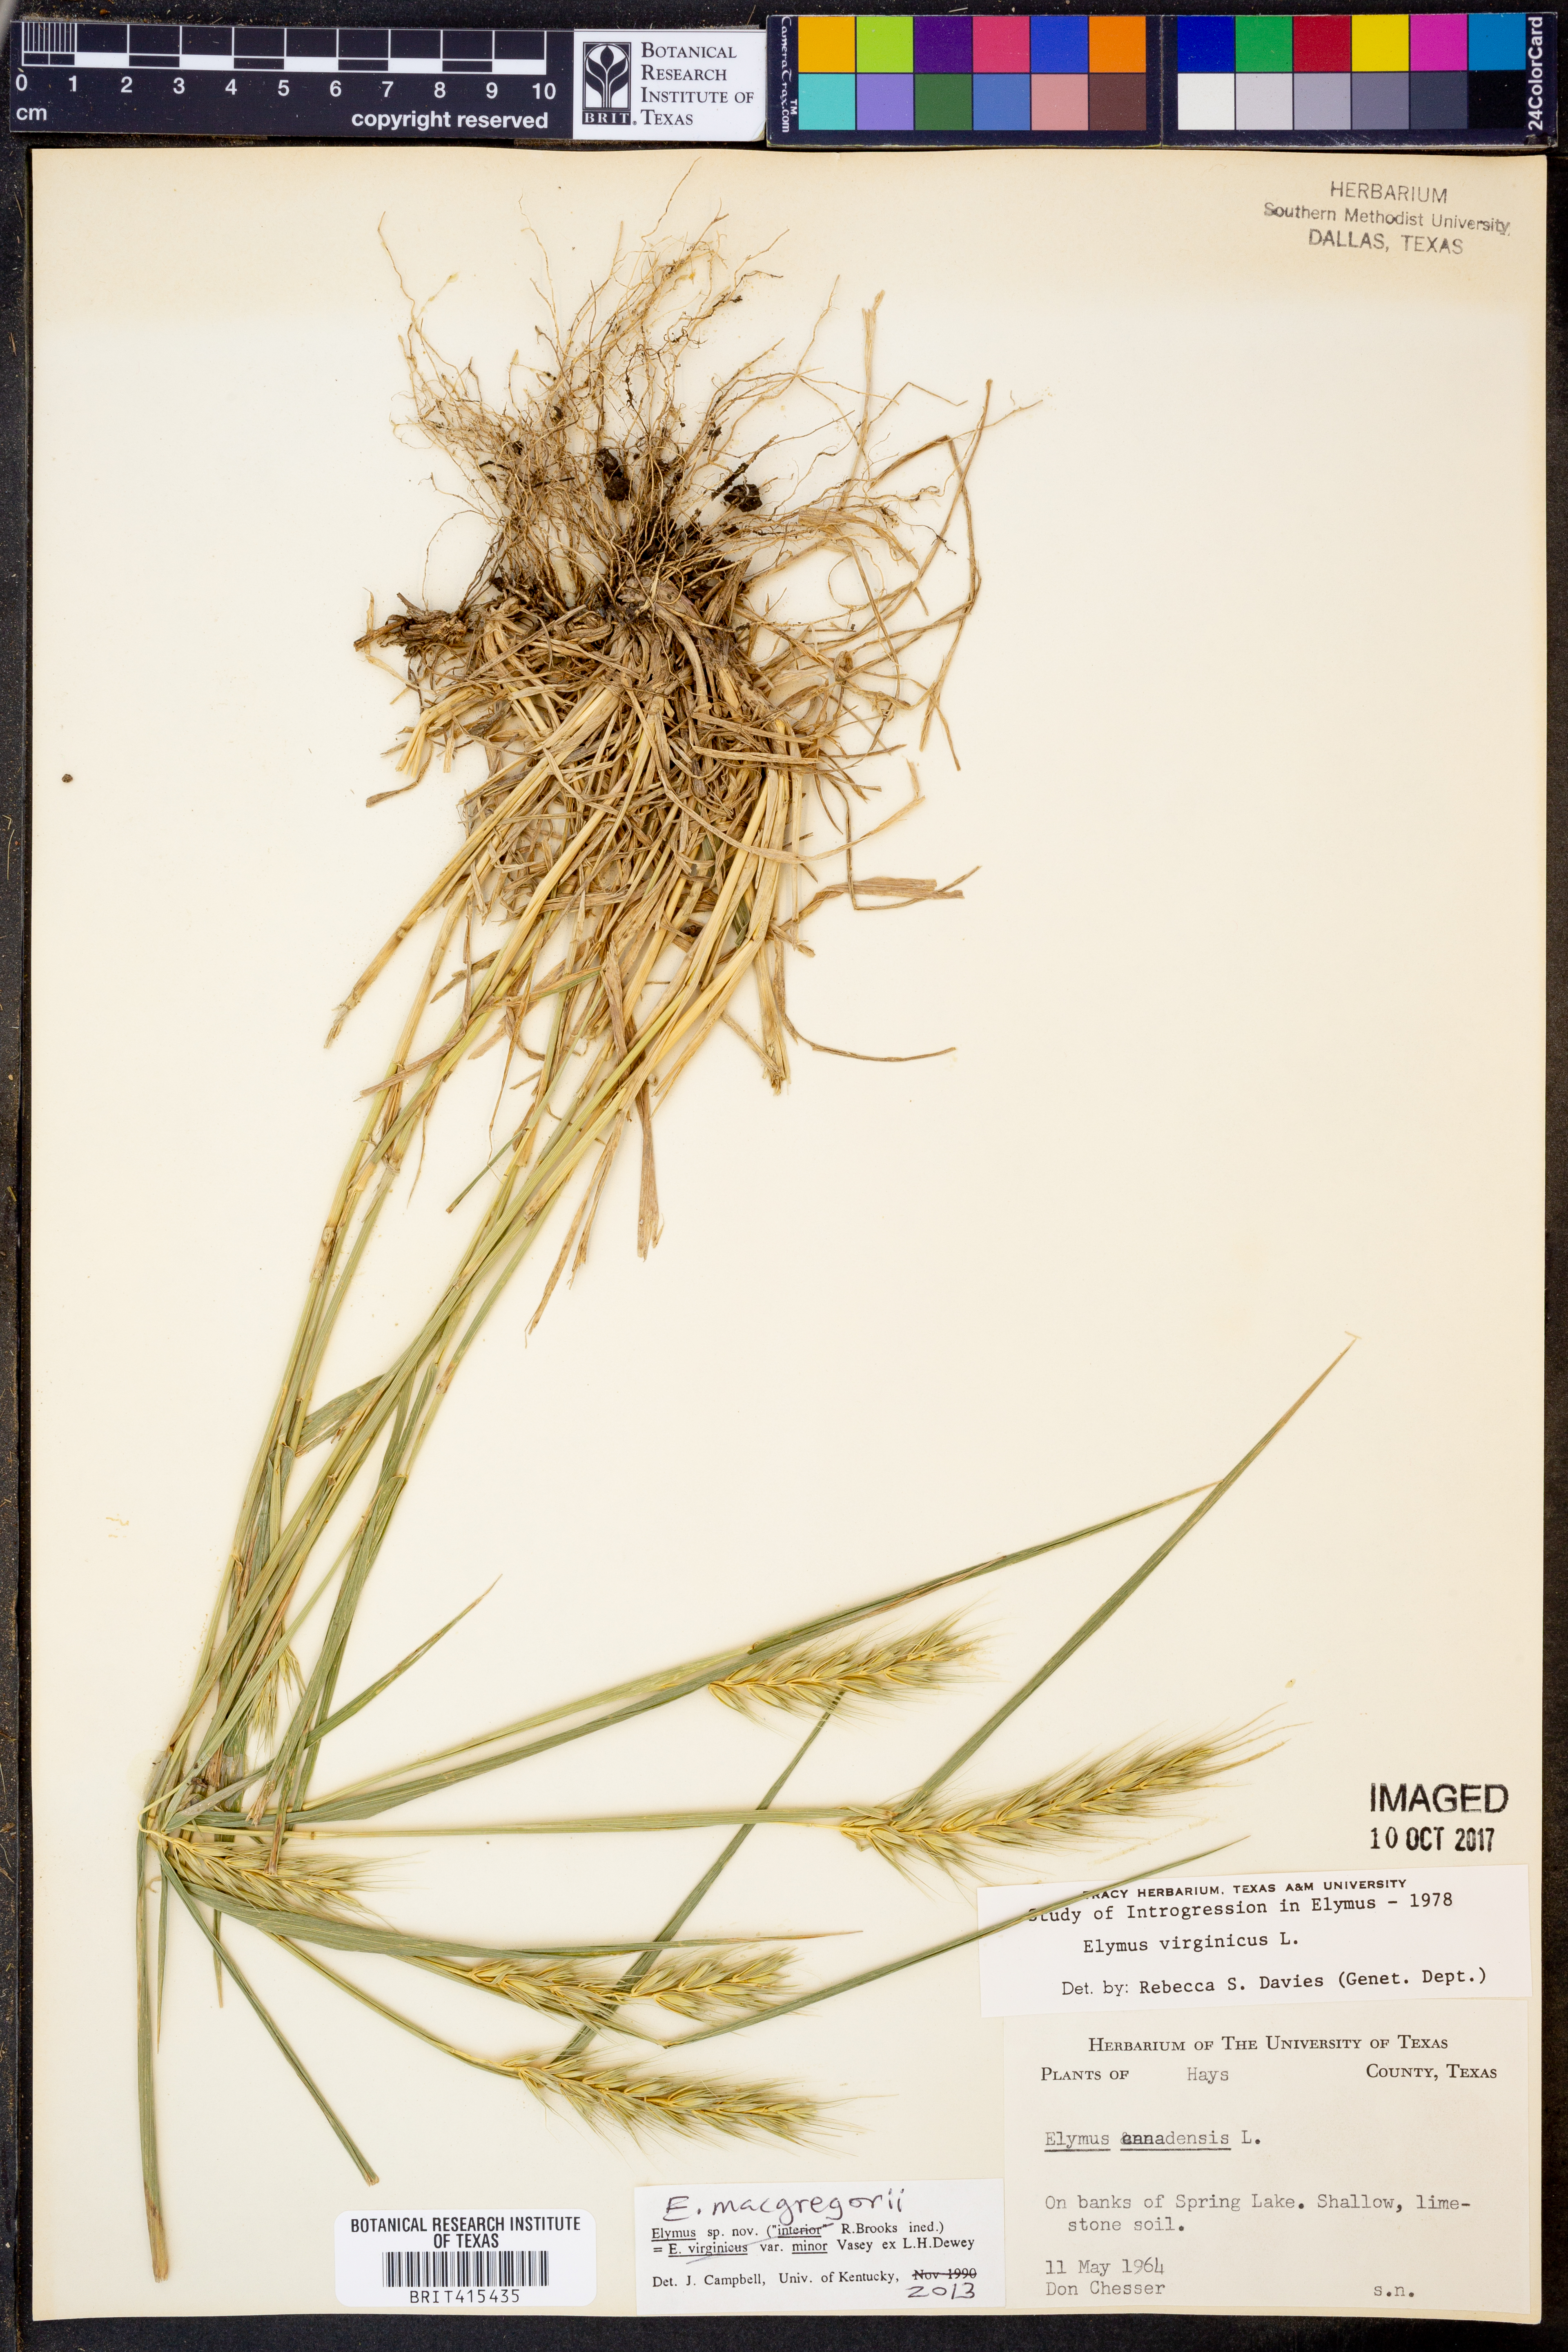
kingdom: Plantae
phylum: Tracheophyta
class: Liliopsida
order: Poales
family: Poaceae
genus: Elymus
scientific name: Elymus macgregorii
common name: Early wild rye
